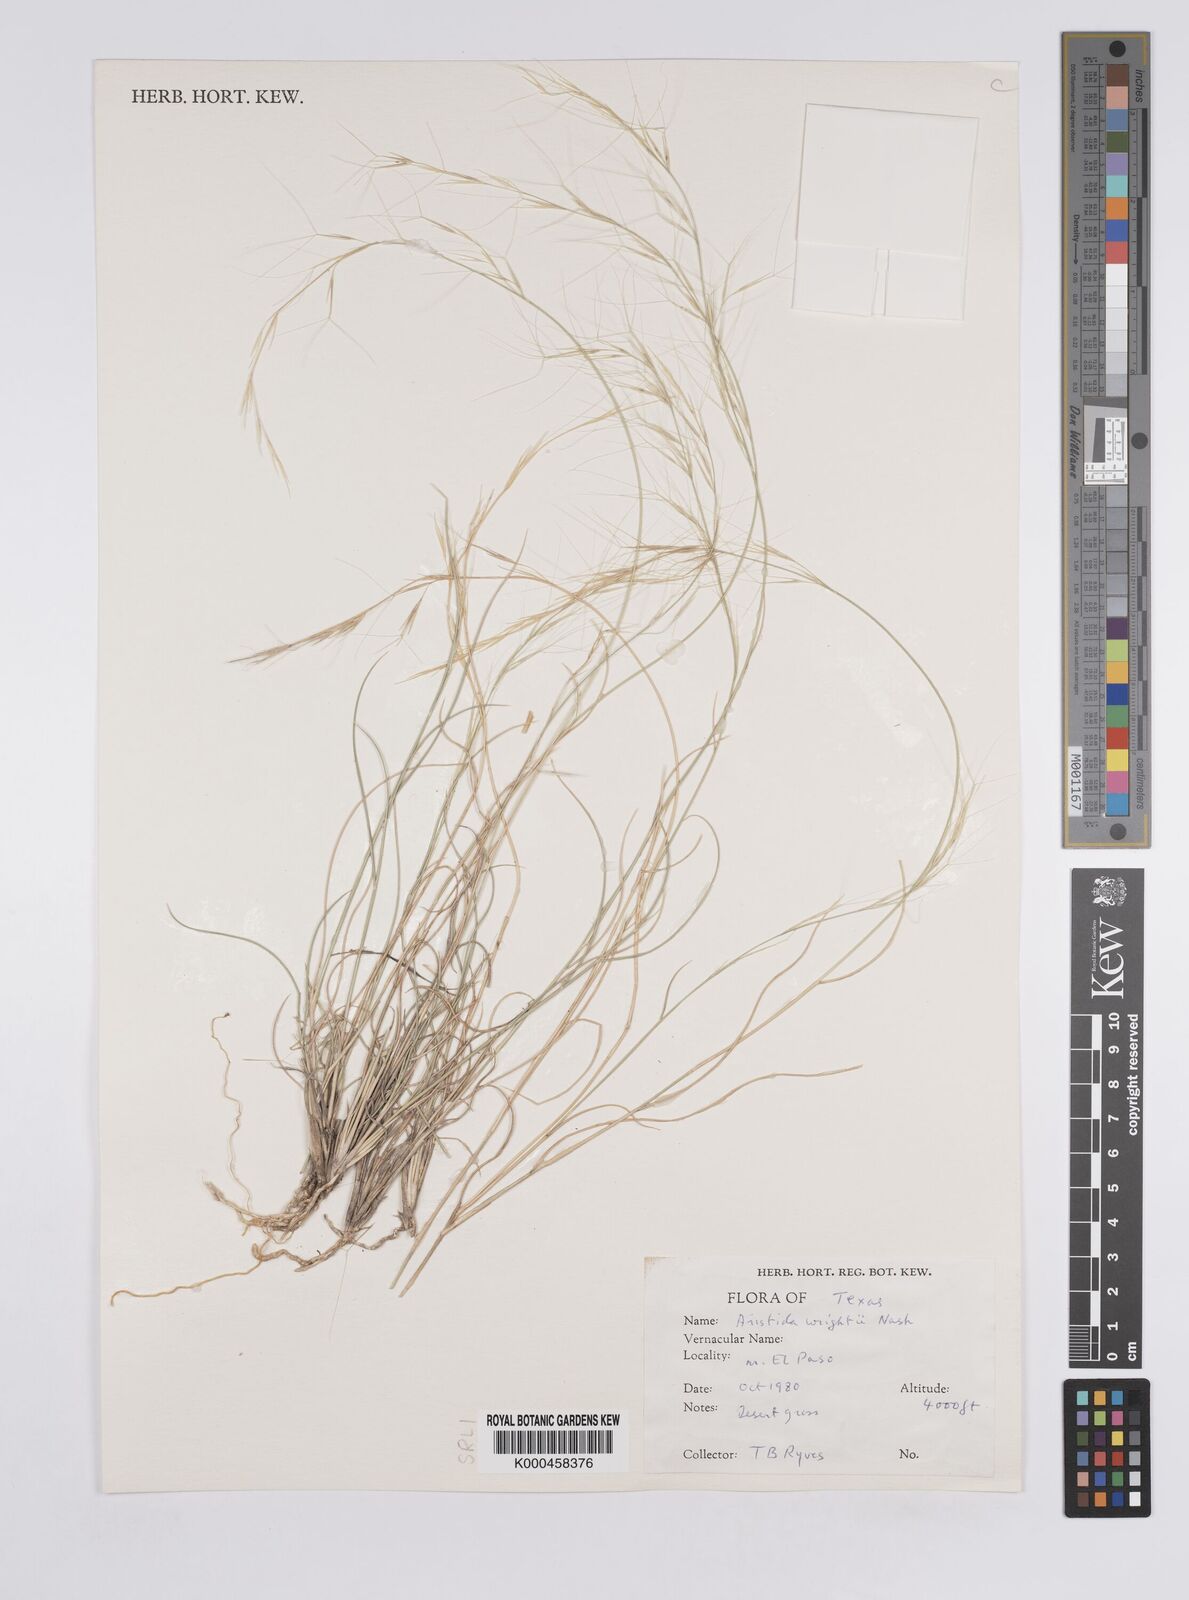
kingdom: Plantae
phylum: Tracheophyta
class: Liliopsida
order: Poales
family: Poaceae
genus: Aristida
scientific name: Aristida wrightii
